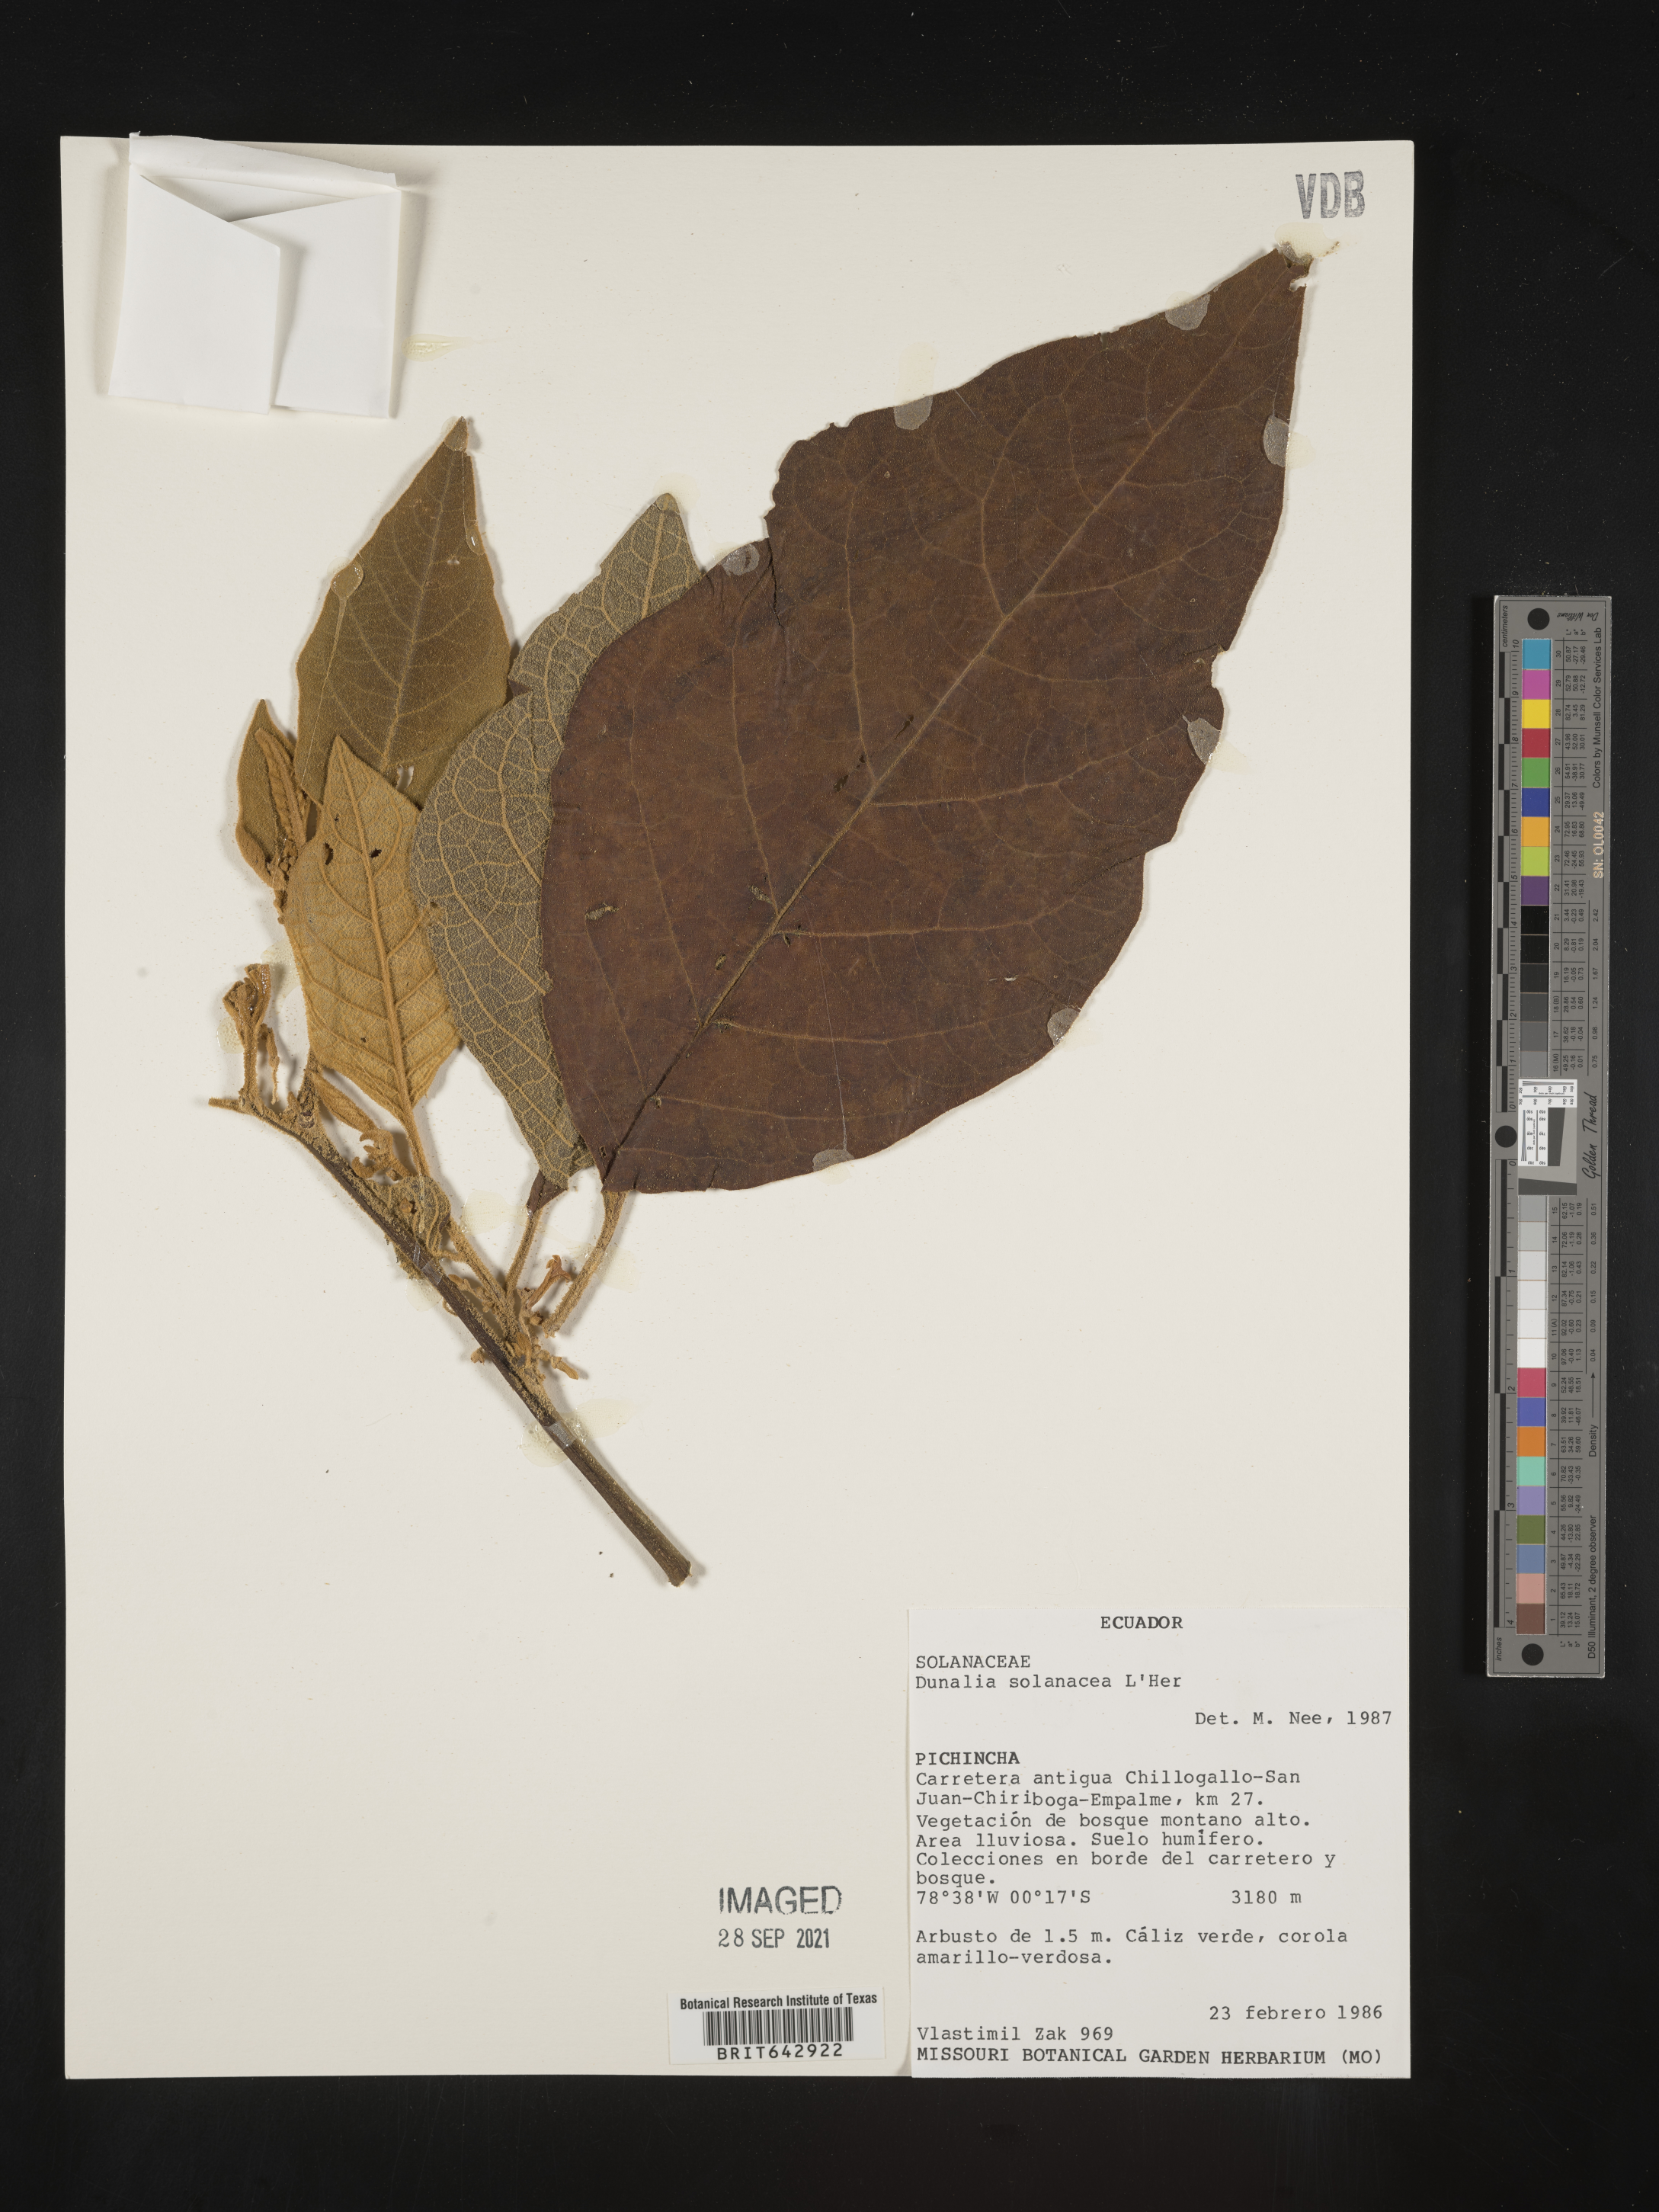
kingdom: Plantae
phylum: Tracheophyta
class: Magnoliopsida
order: Solanales
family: Solanaceae
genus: Dunalia
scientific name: Dunalia
